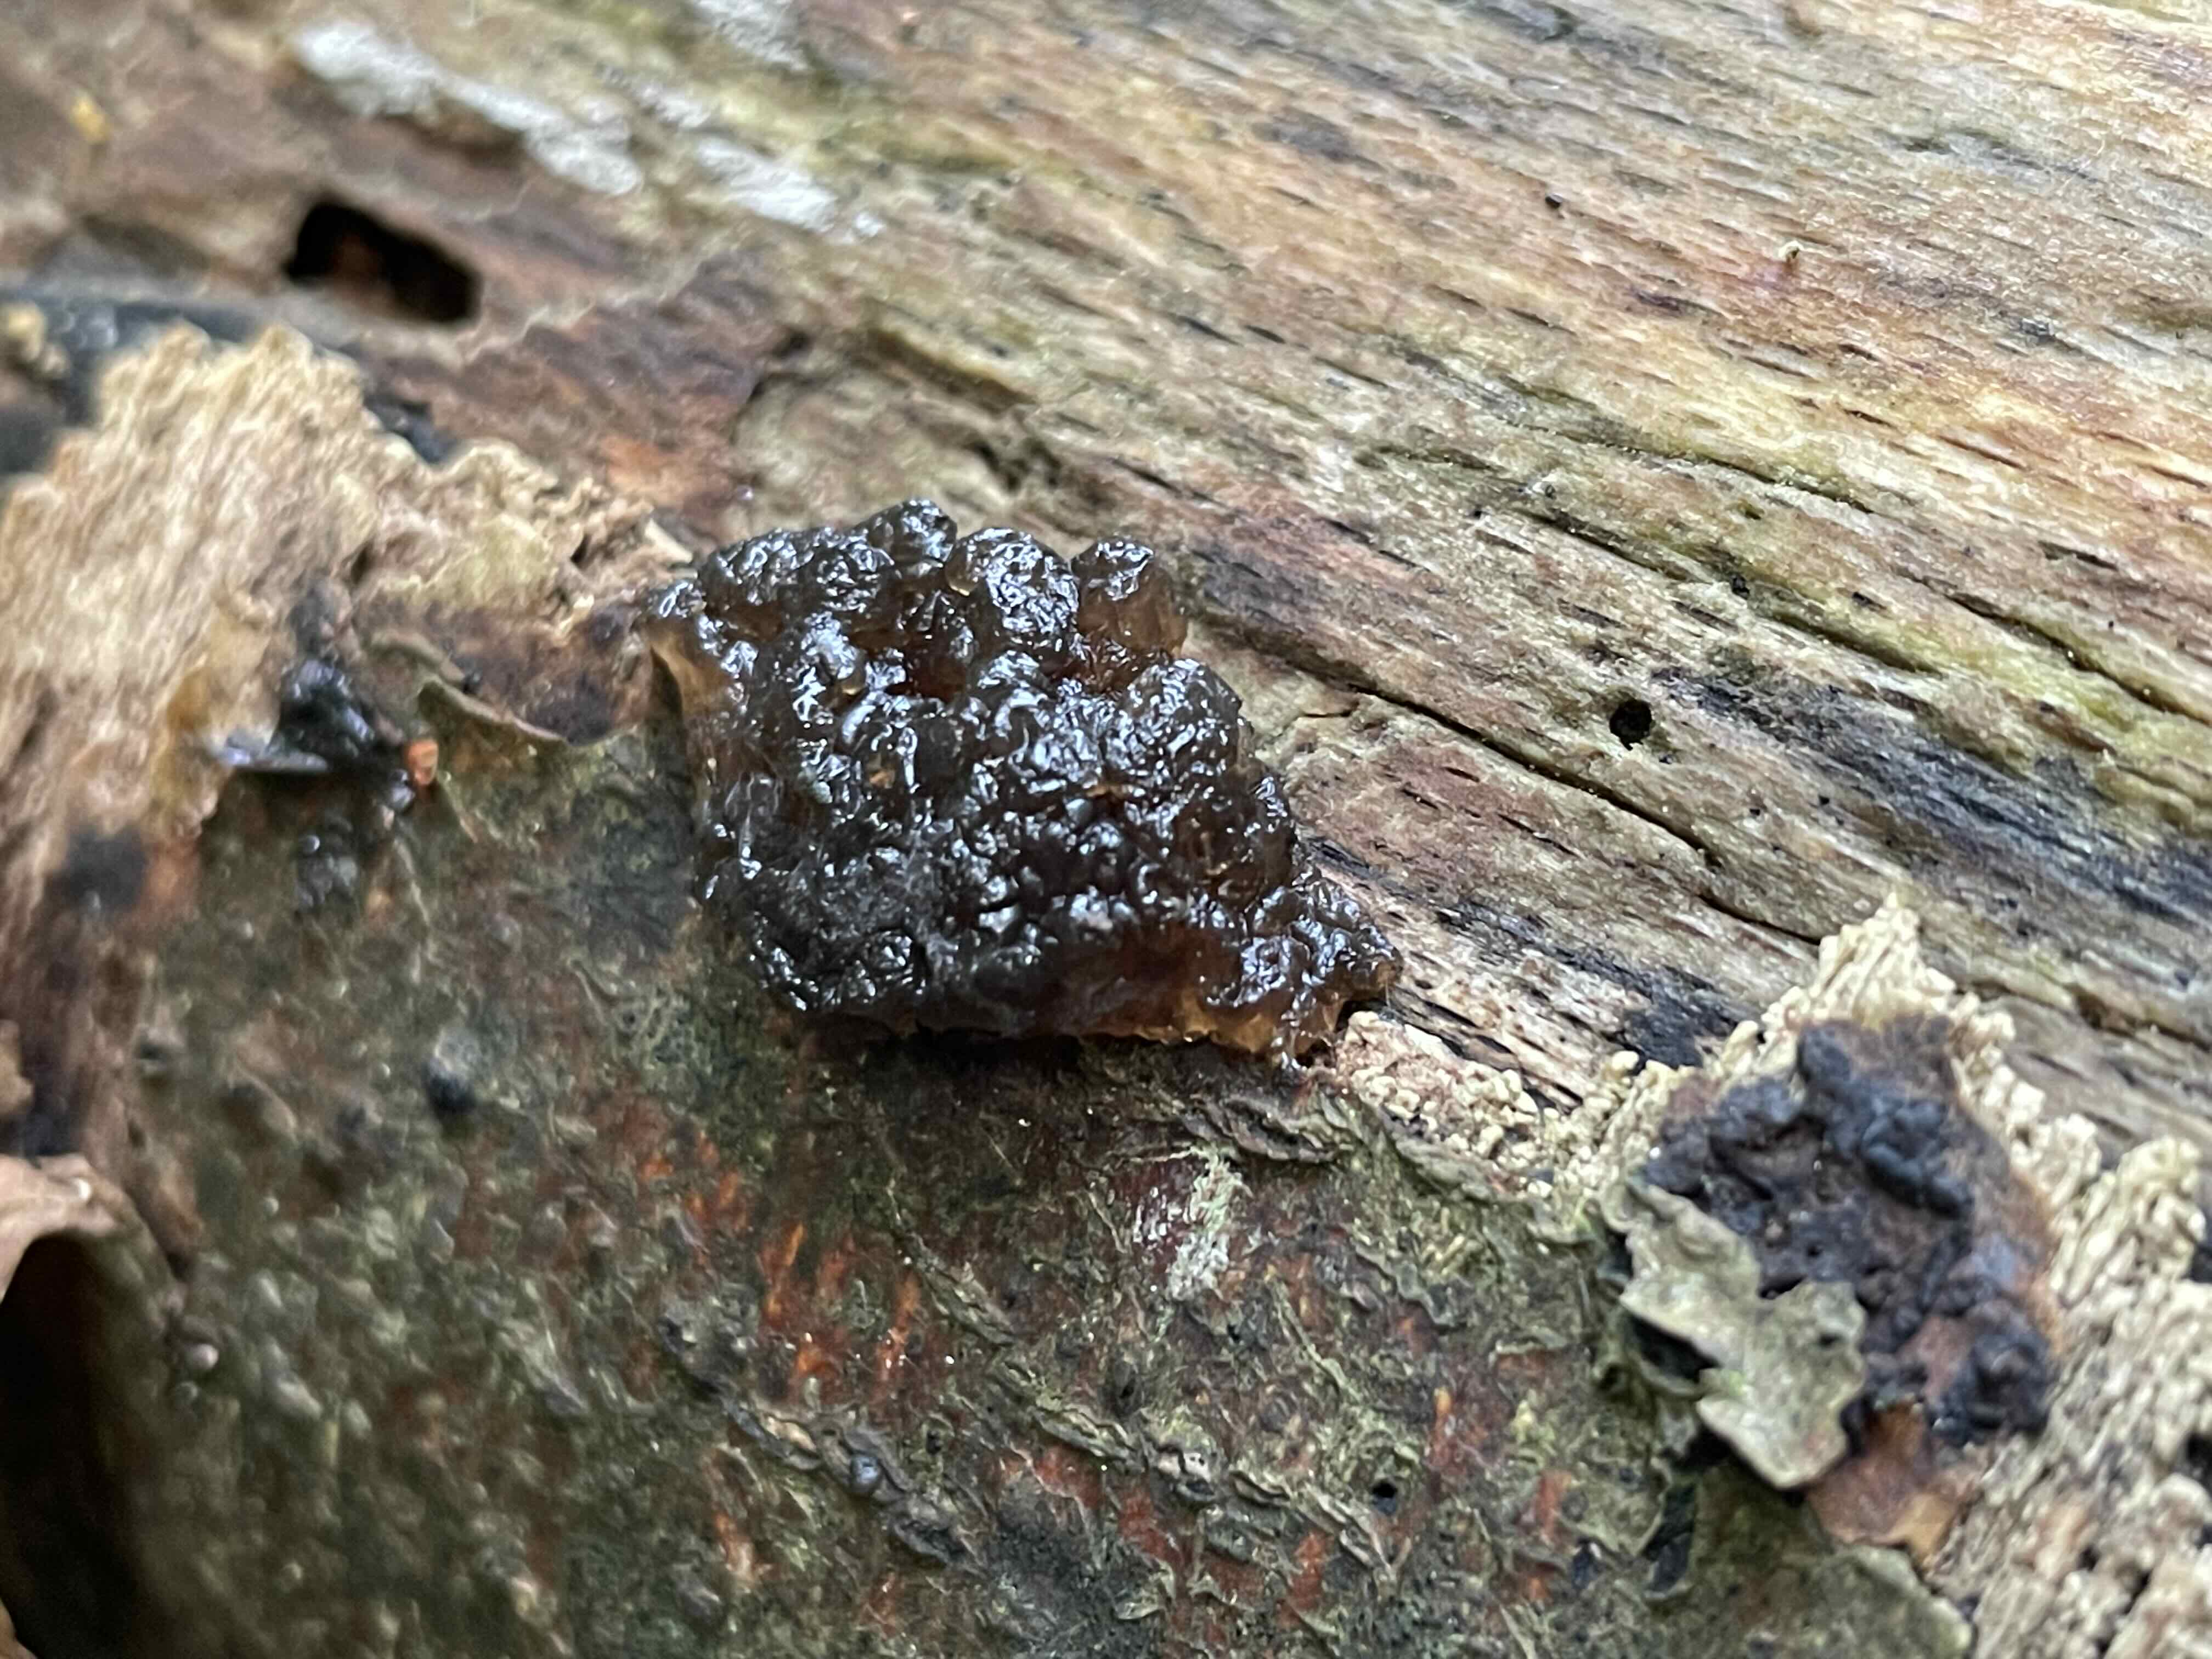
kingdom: Fungi
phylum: Basidiomycota
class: Agaricomycetes
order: Auriculariales
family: Auriculariaceae
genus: Exidia
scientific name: Exidia nigricans
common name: almindelig bævretop
